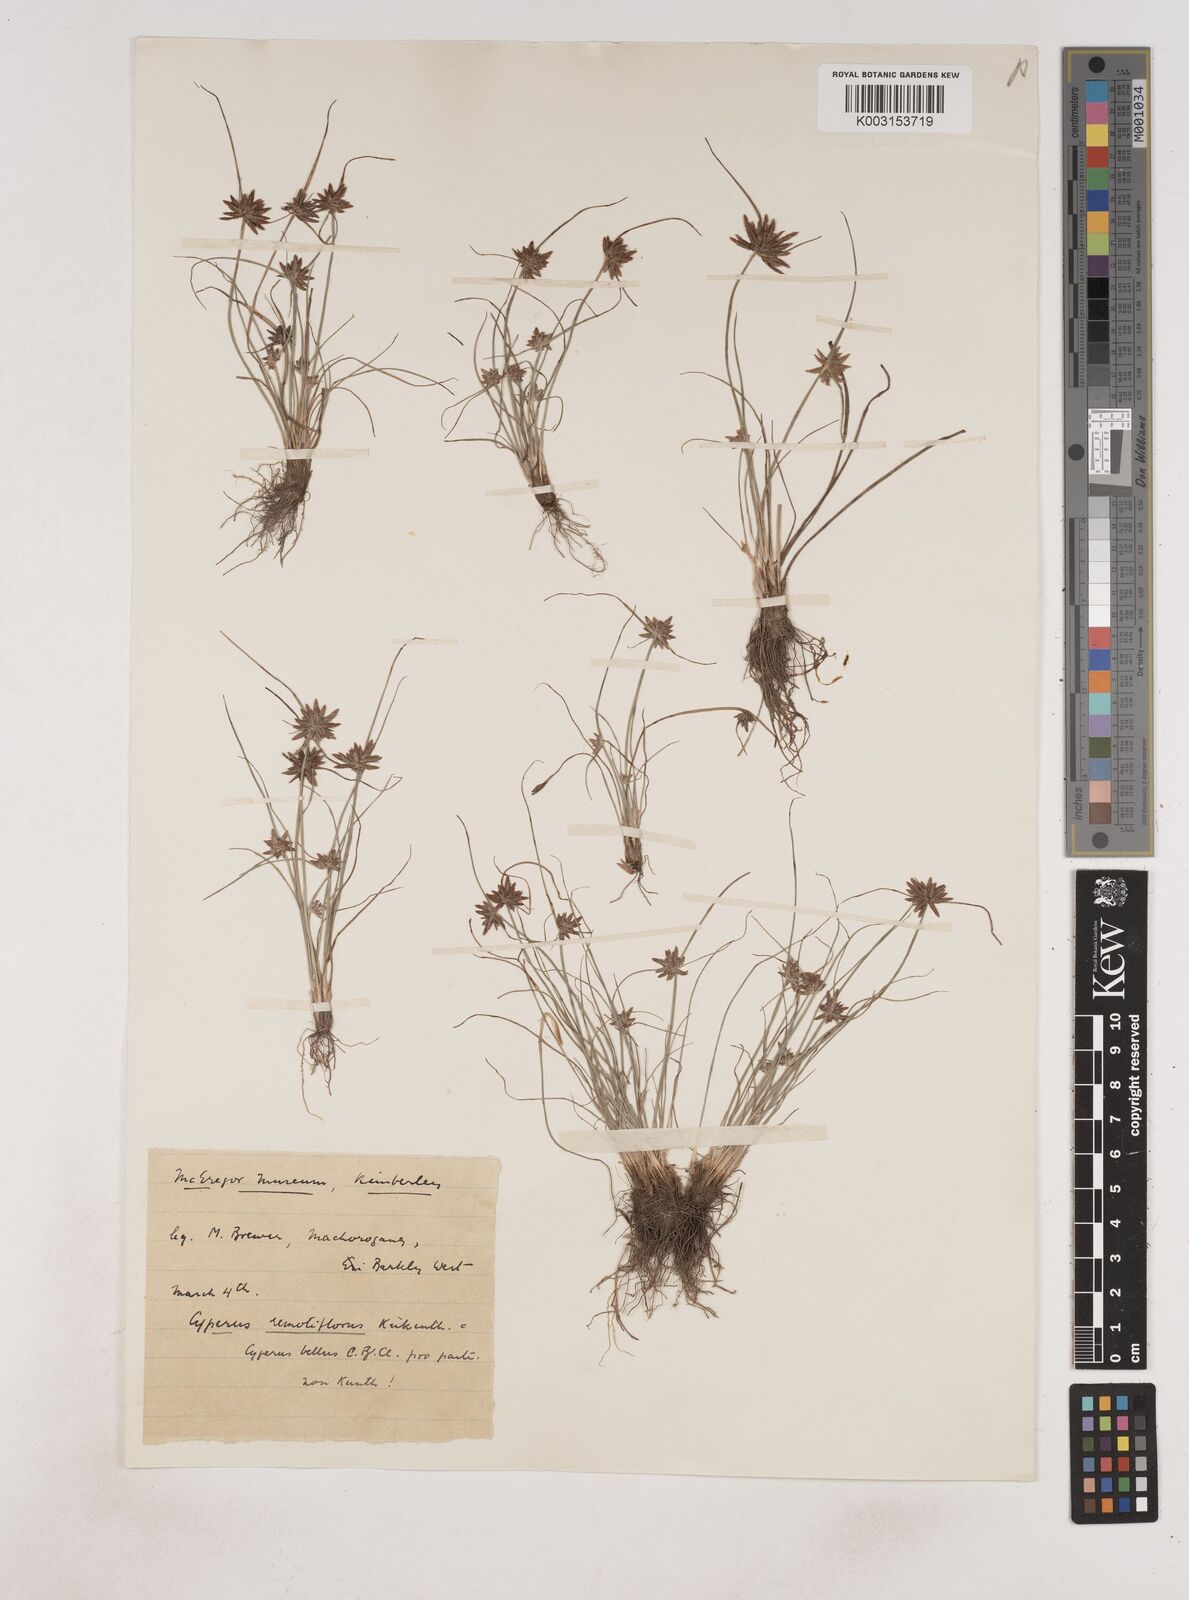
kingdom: Plantae
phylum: Tracheophyta
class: Liliopsida
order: Poales
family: Cyperaceae
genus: Cyperus
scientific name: Cyperus remotiflorus
